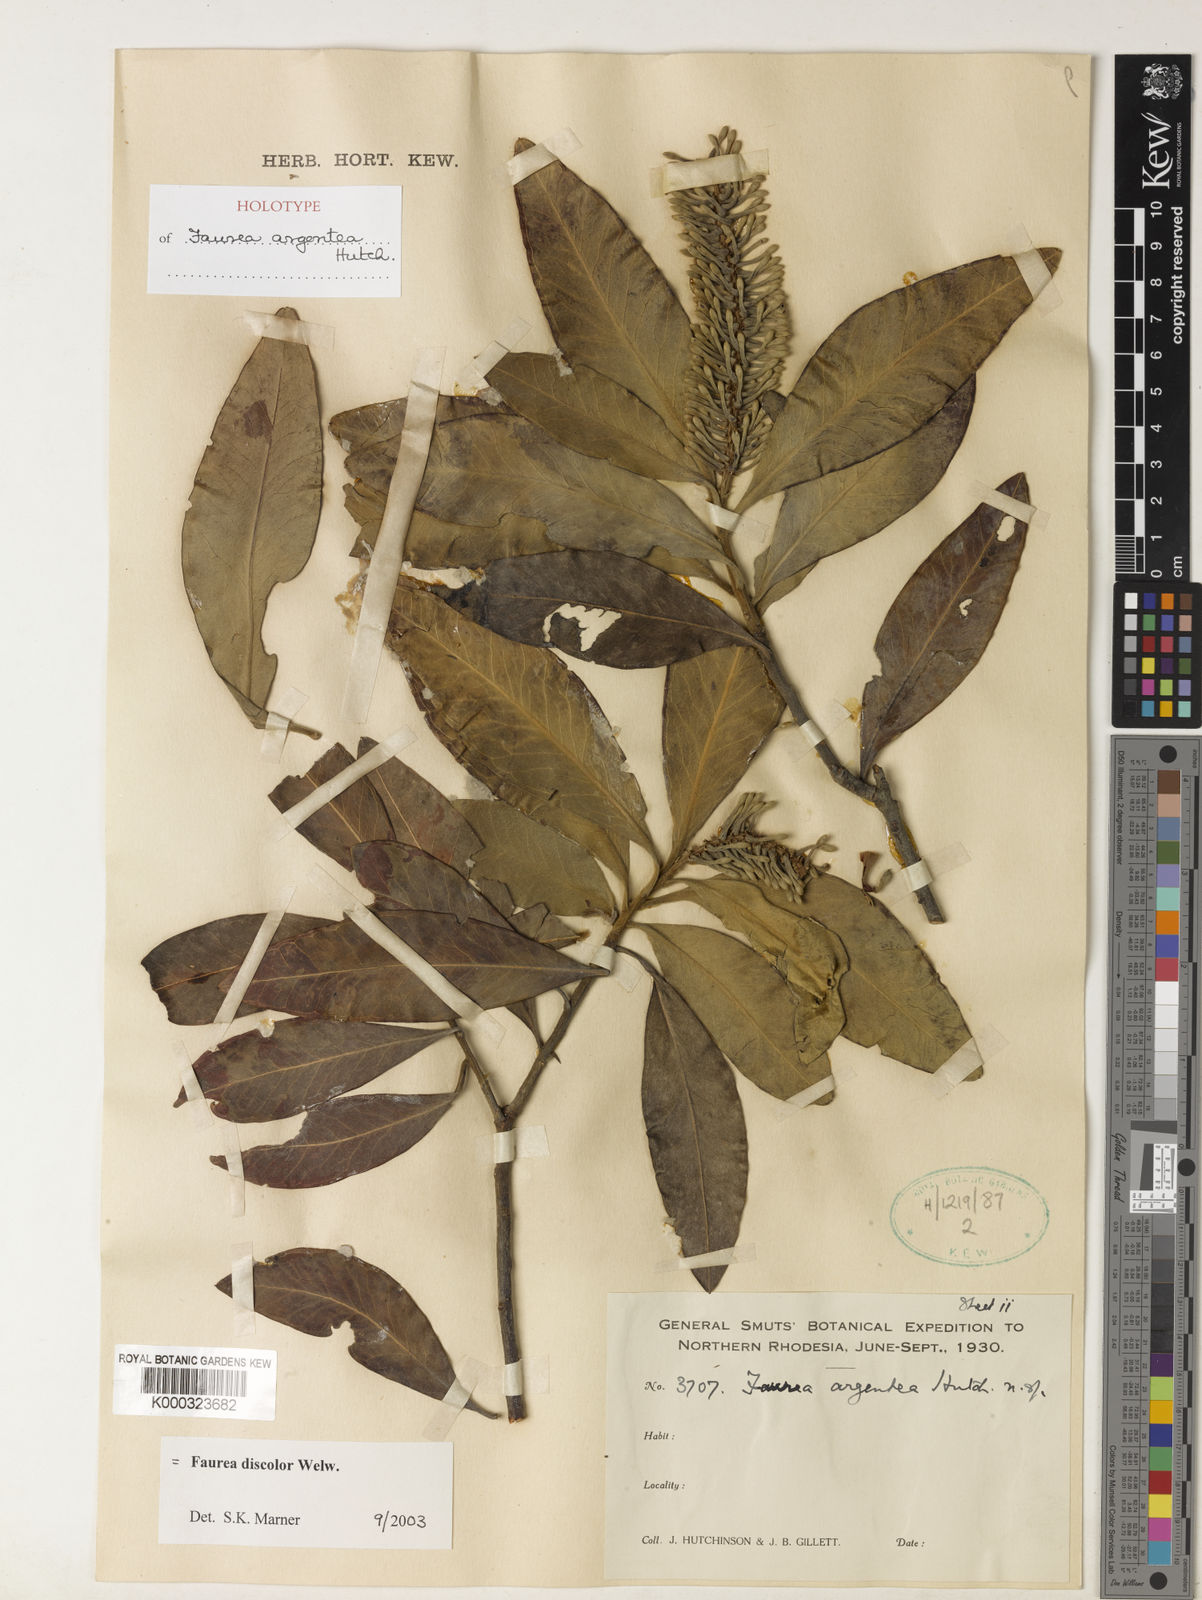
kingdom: Plantae
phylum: Tracheophyta
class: Magnoliopsida
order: Proteales
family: Proteaceae
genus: Faurea
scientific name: Faurea intermedia
